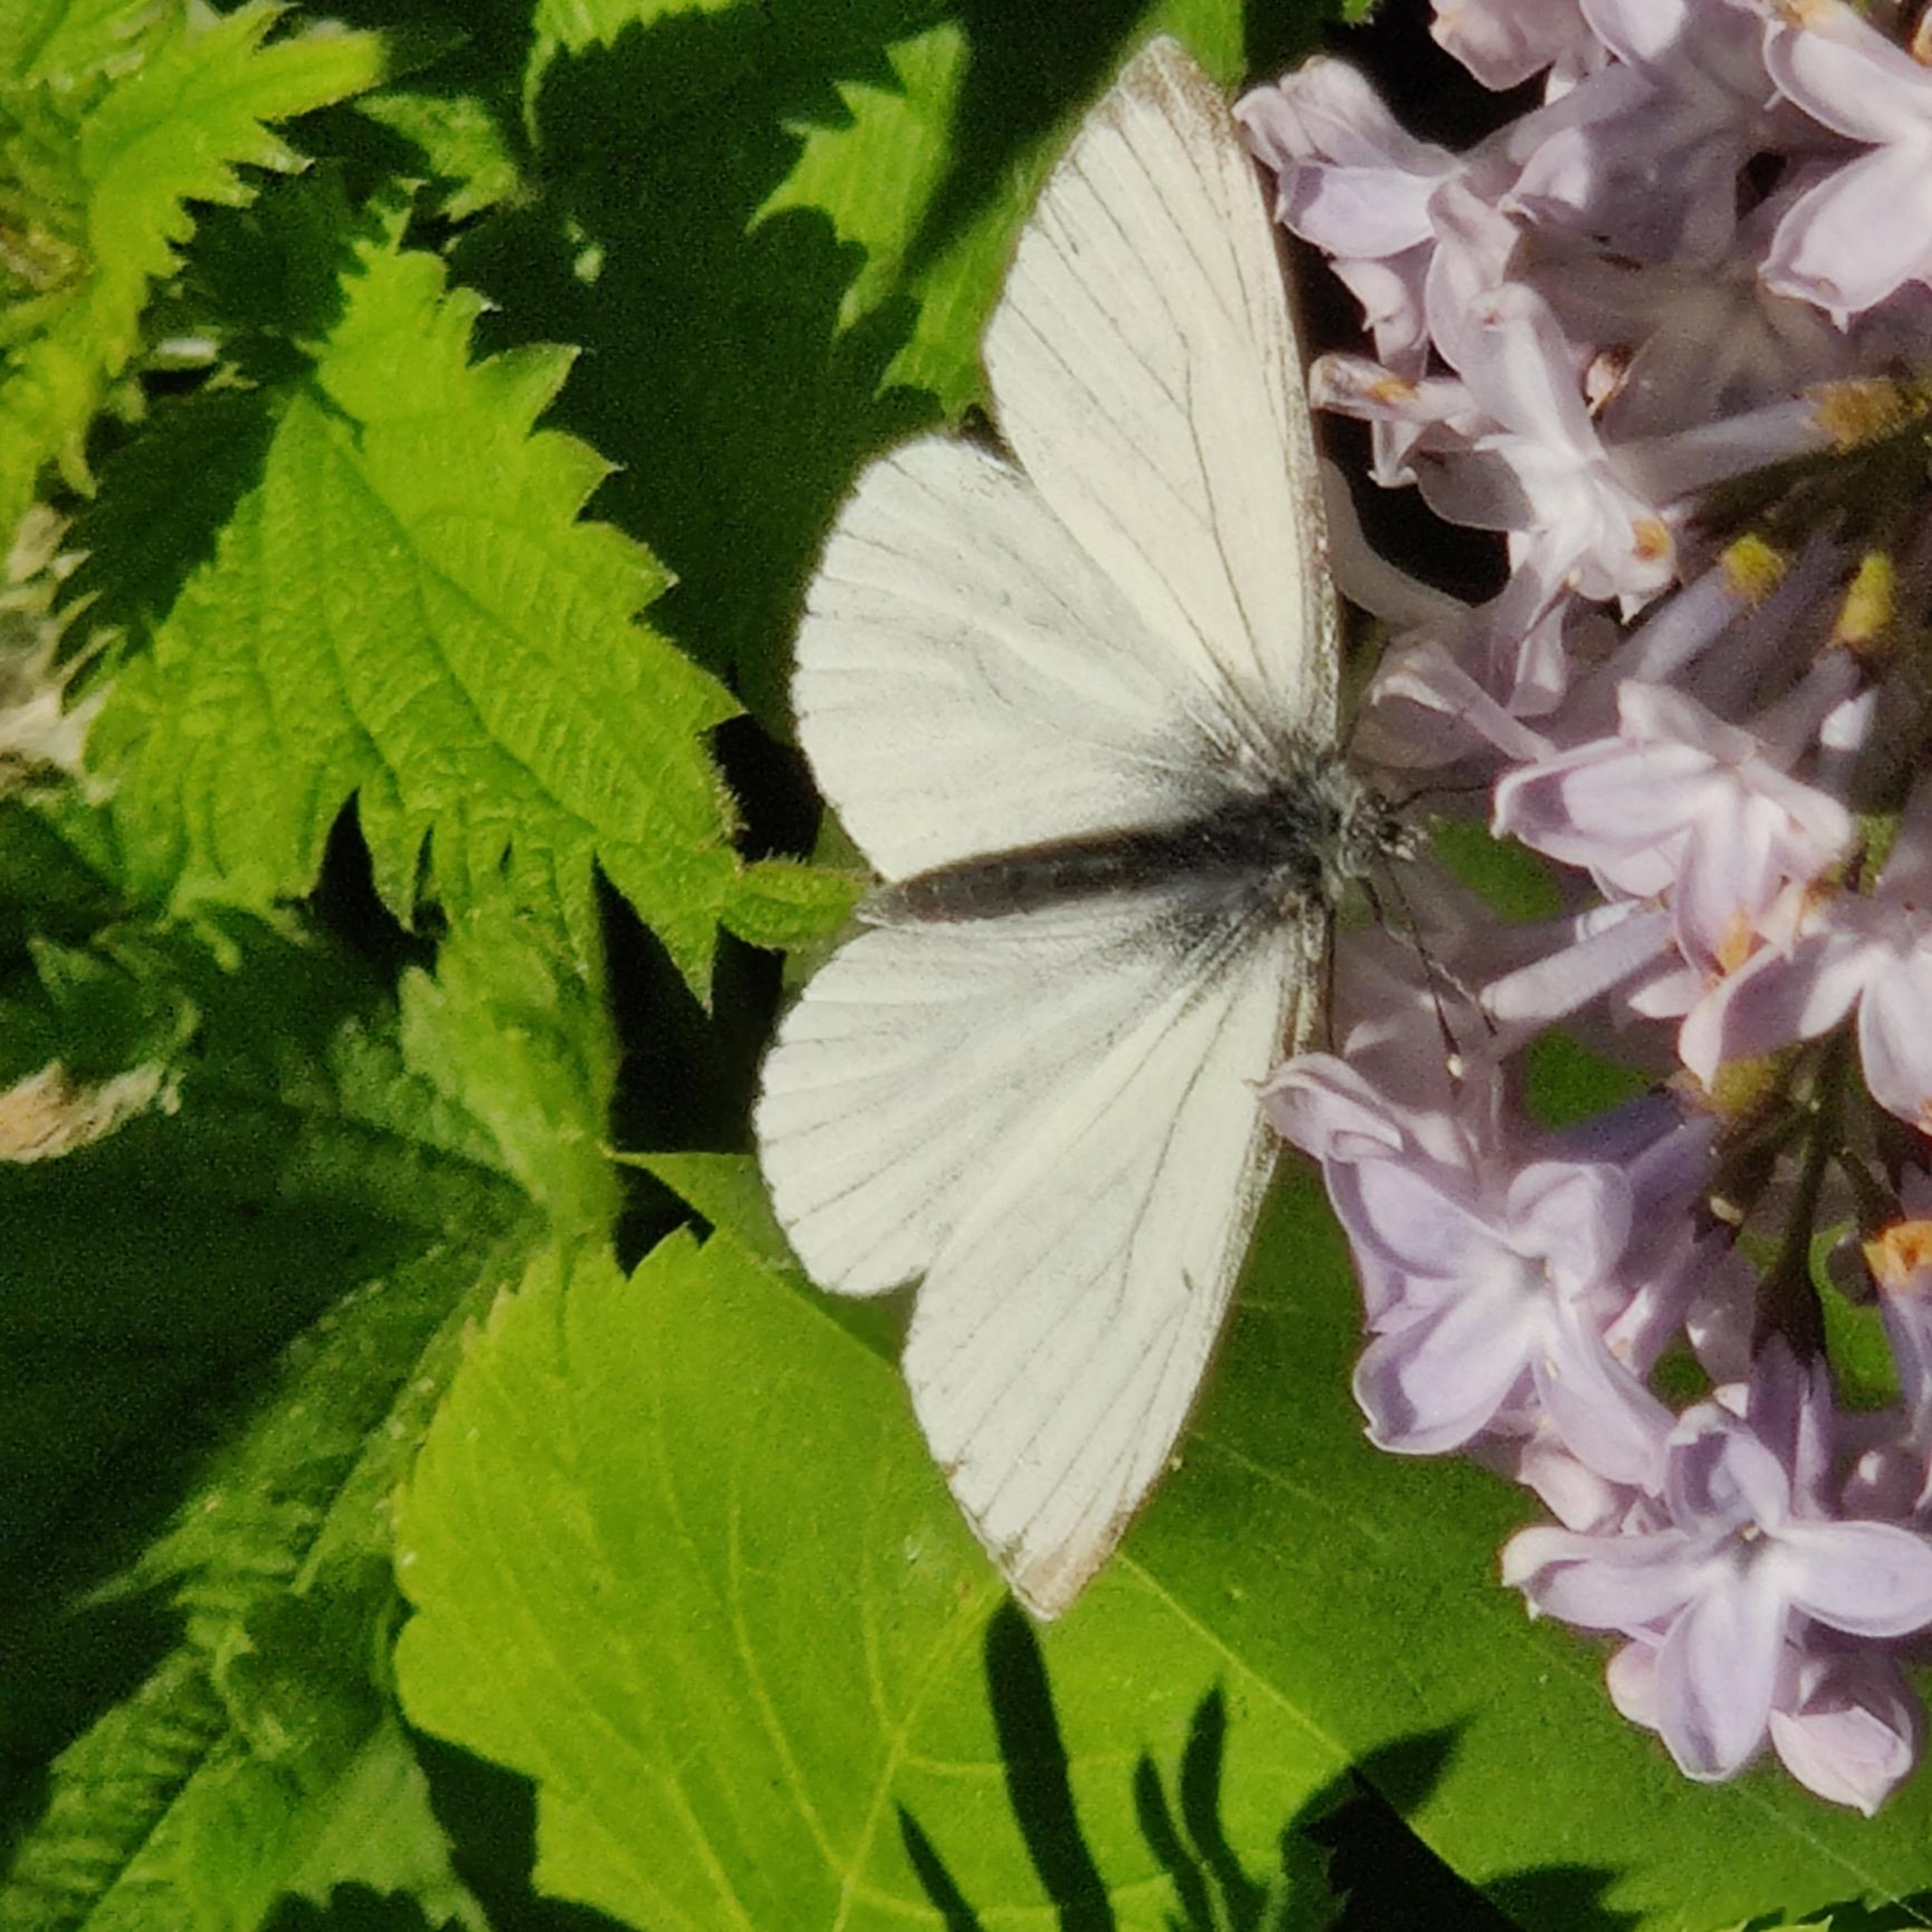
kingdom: Animalia
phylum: Arthropoda
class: Insecta
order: Lepidoptera
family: Pieridae
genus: Pieris
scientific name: Pieris napi
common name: Grønåret kålsommerfugl
